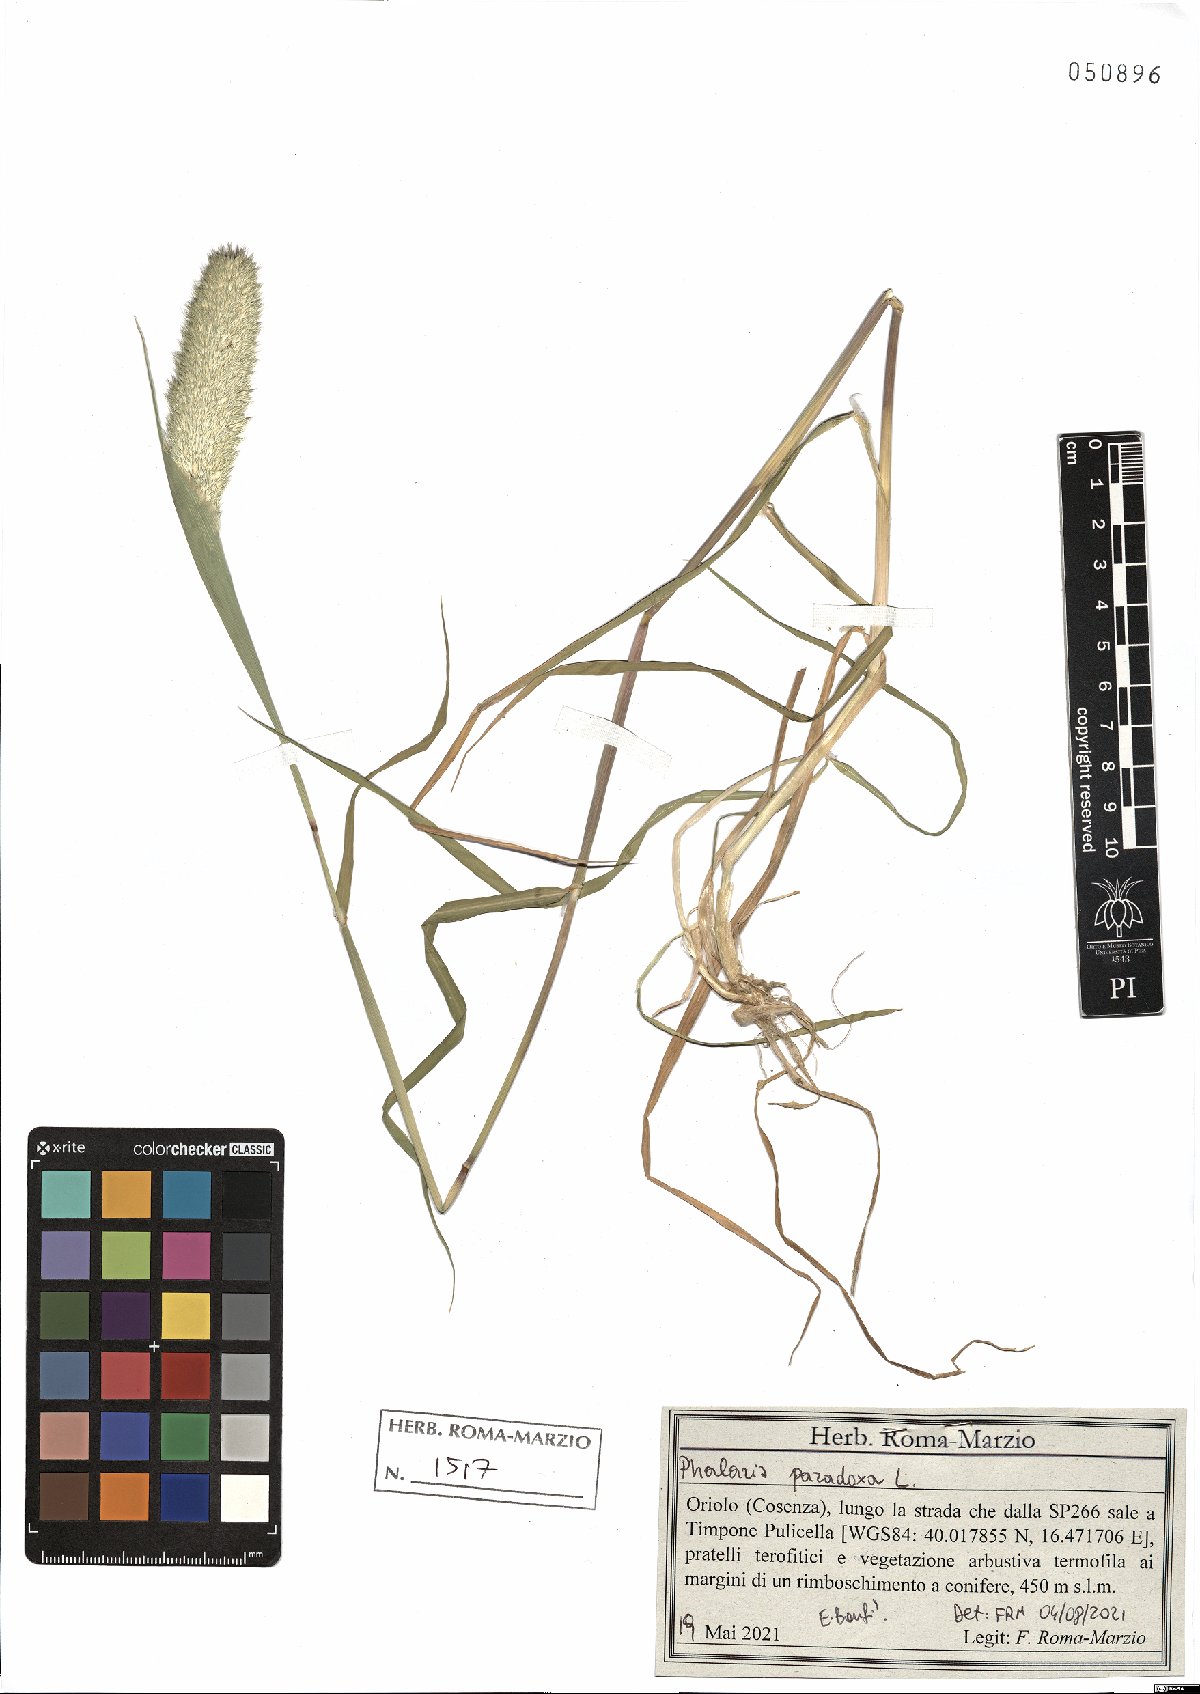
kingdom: Plantae
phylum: Tracheophyta
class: Liliopsida
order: Poales
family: Poaceae
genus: Phalaris
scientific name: Phalaris paradoxa
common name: Awned canary-grass
